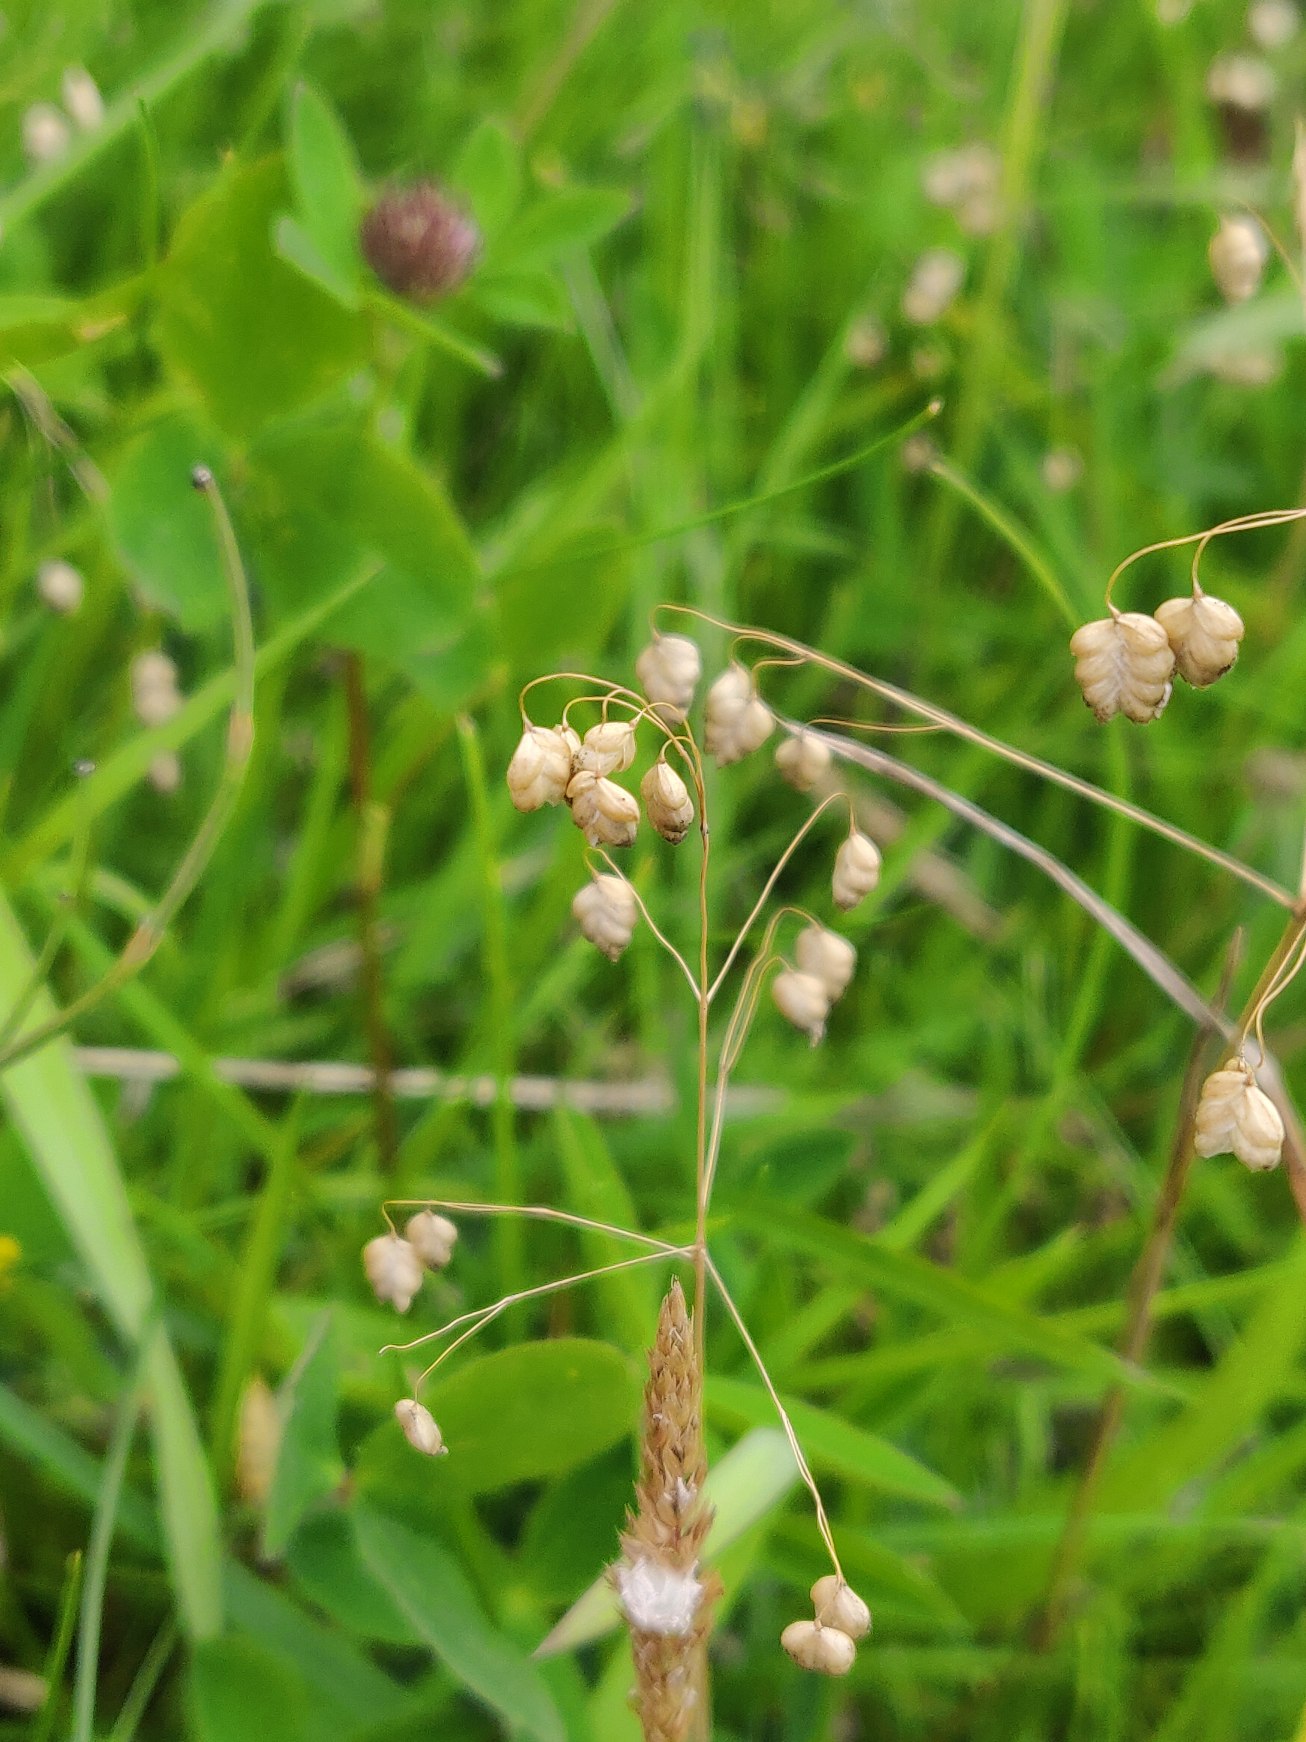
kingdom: Plantae
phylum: Tracheophyta
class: Liliopsida
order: Poales
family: Poaceae
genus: Briza
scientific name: Briza media
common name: Hjertegræs
